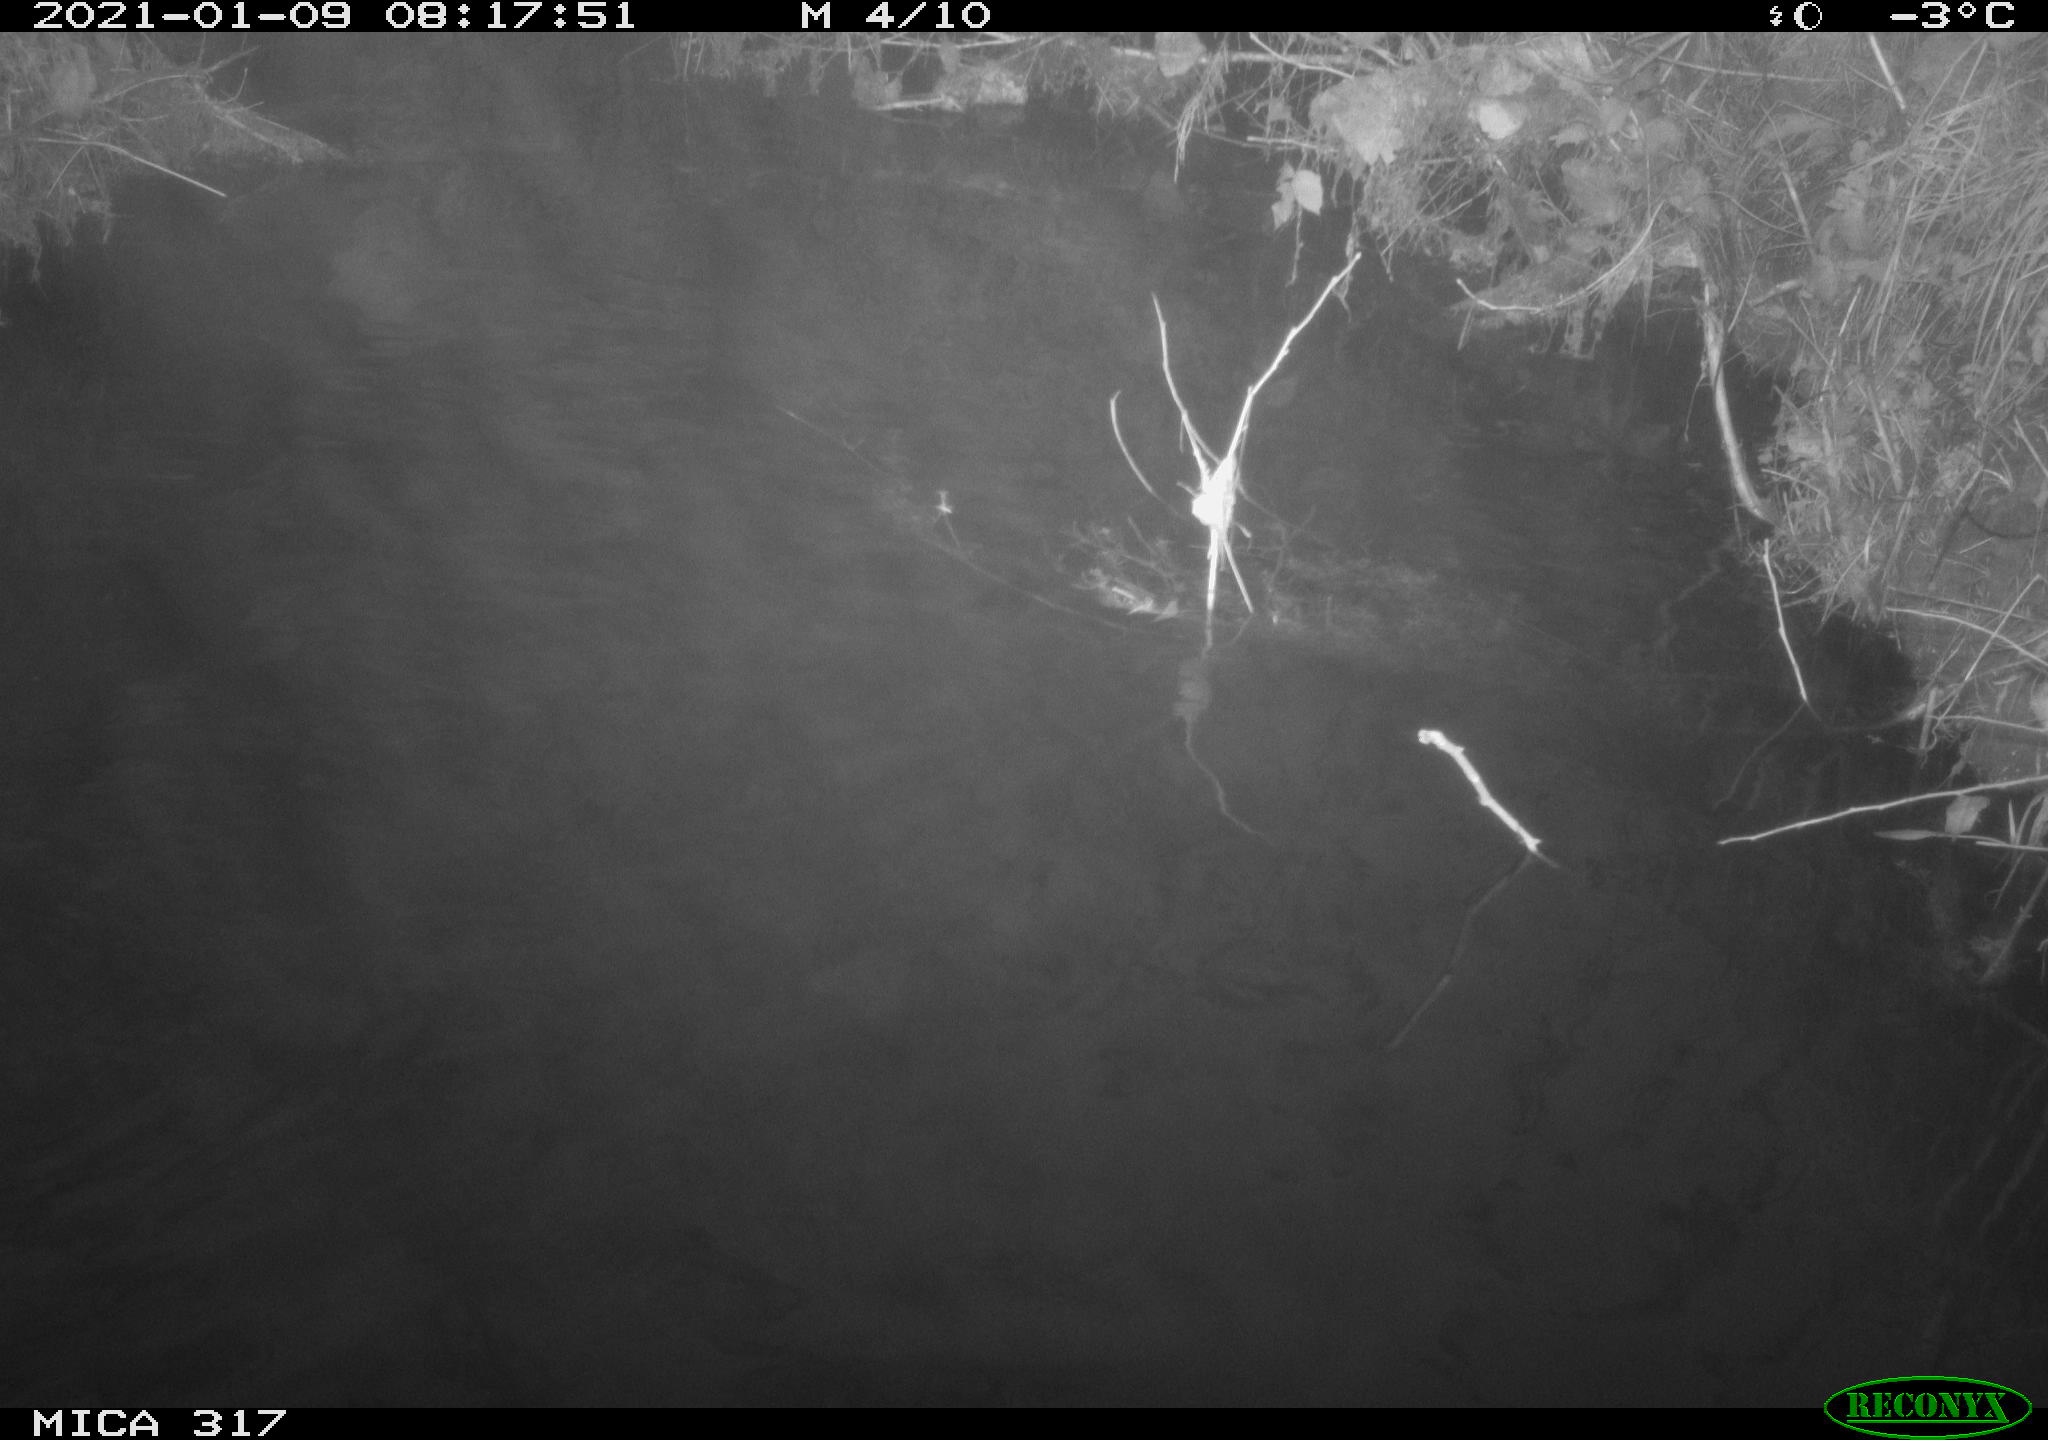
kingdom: Animalia
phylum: Chordata
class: Aves
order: Gruiformes
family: Rallidae
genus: Fulica
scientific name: Fulica atra
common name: Eurasian coot
